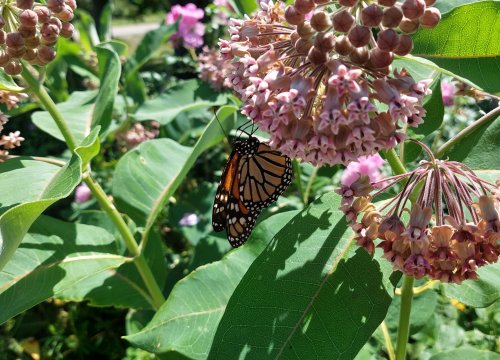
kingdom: Animalia
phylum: Arthropoda
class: Insecta
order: Lepidoptera
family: Nymphalidae
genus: Danaus
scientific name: Danaus plexippus
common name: Monarch
